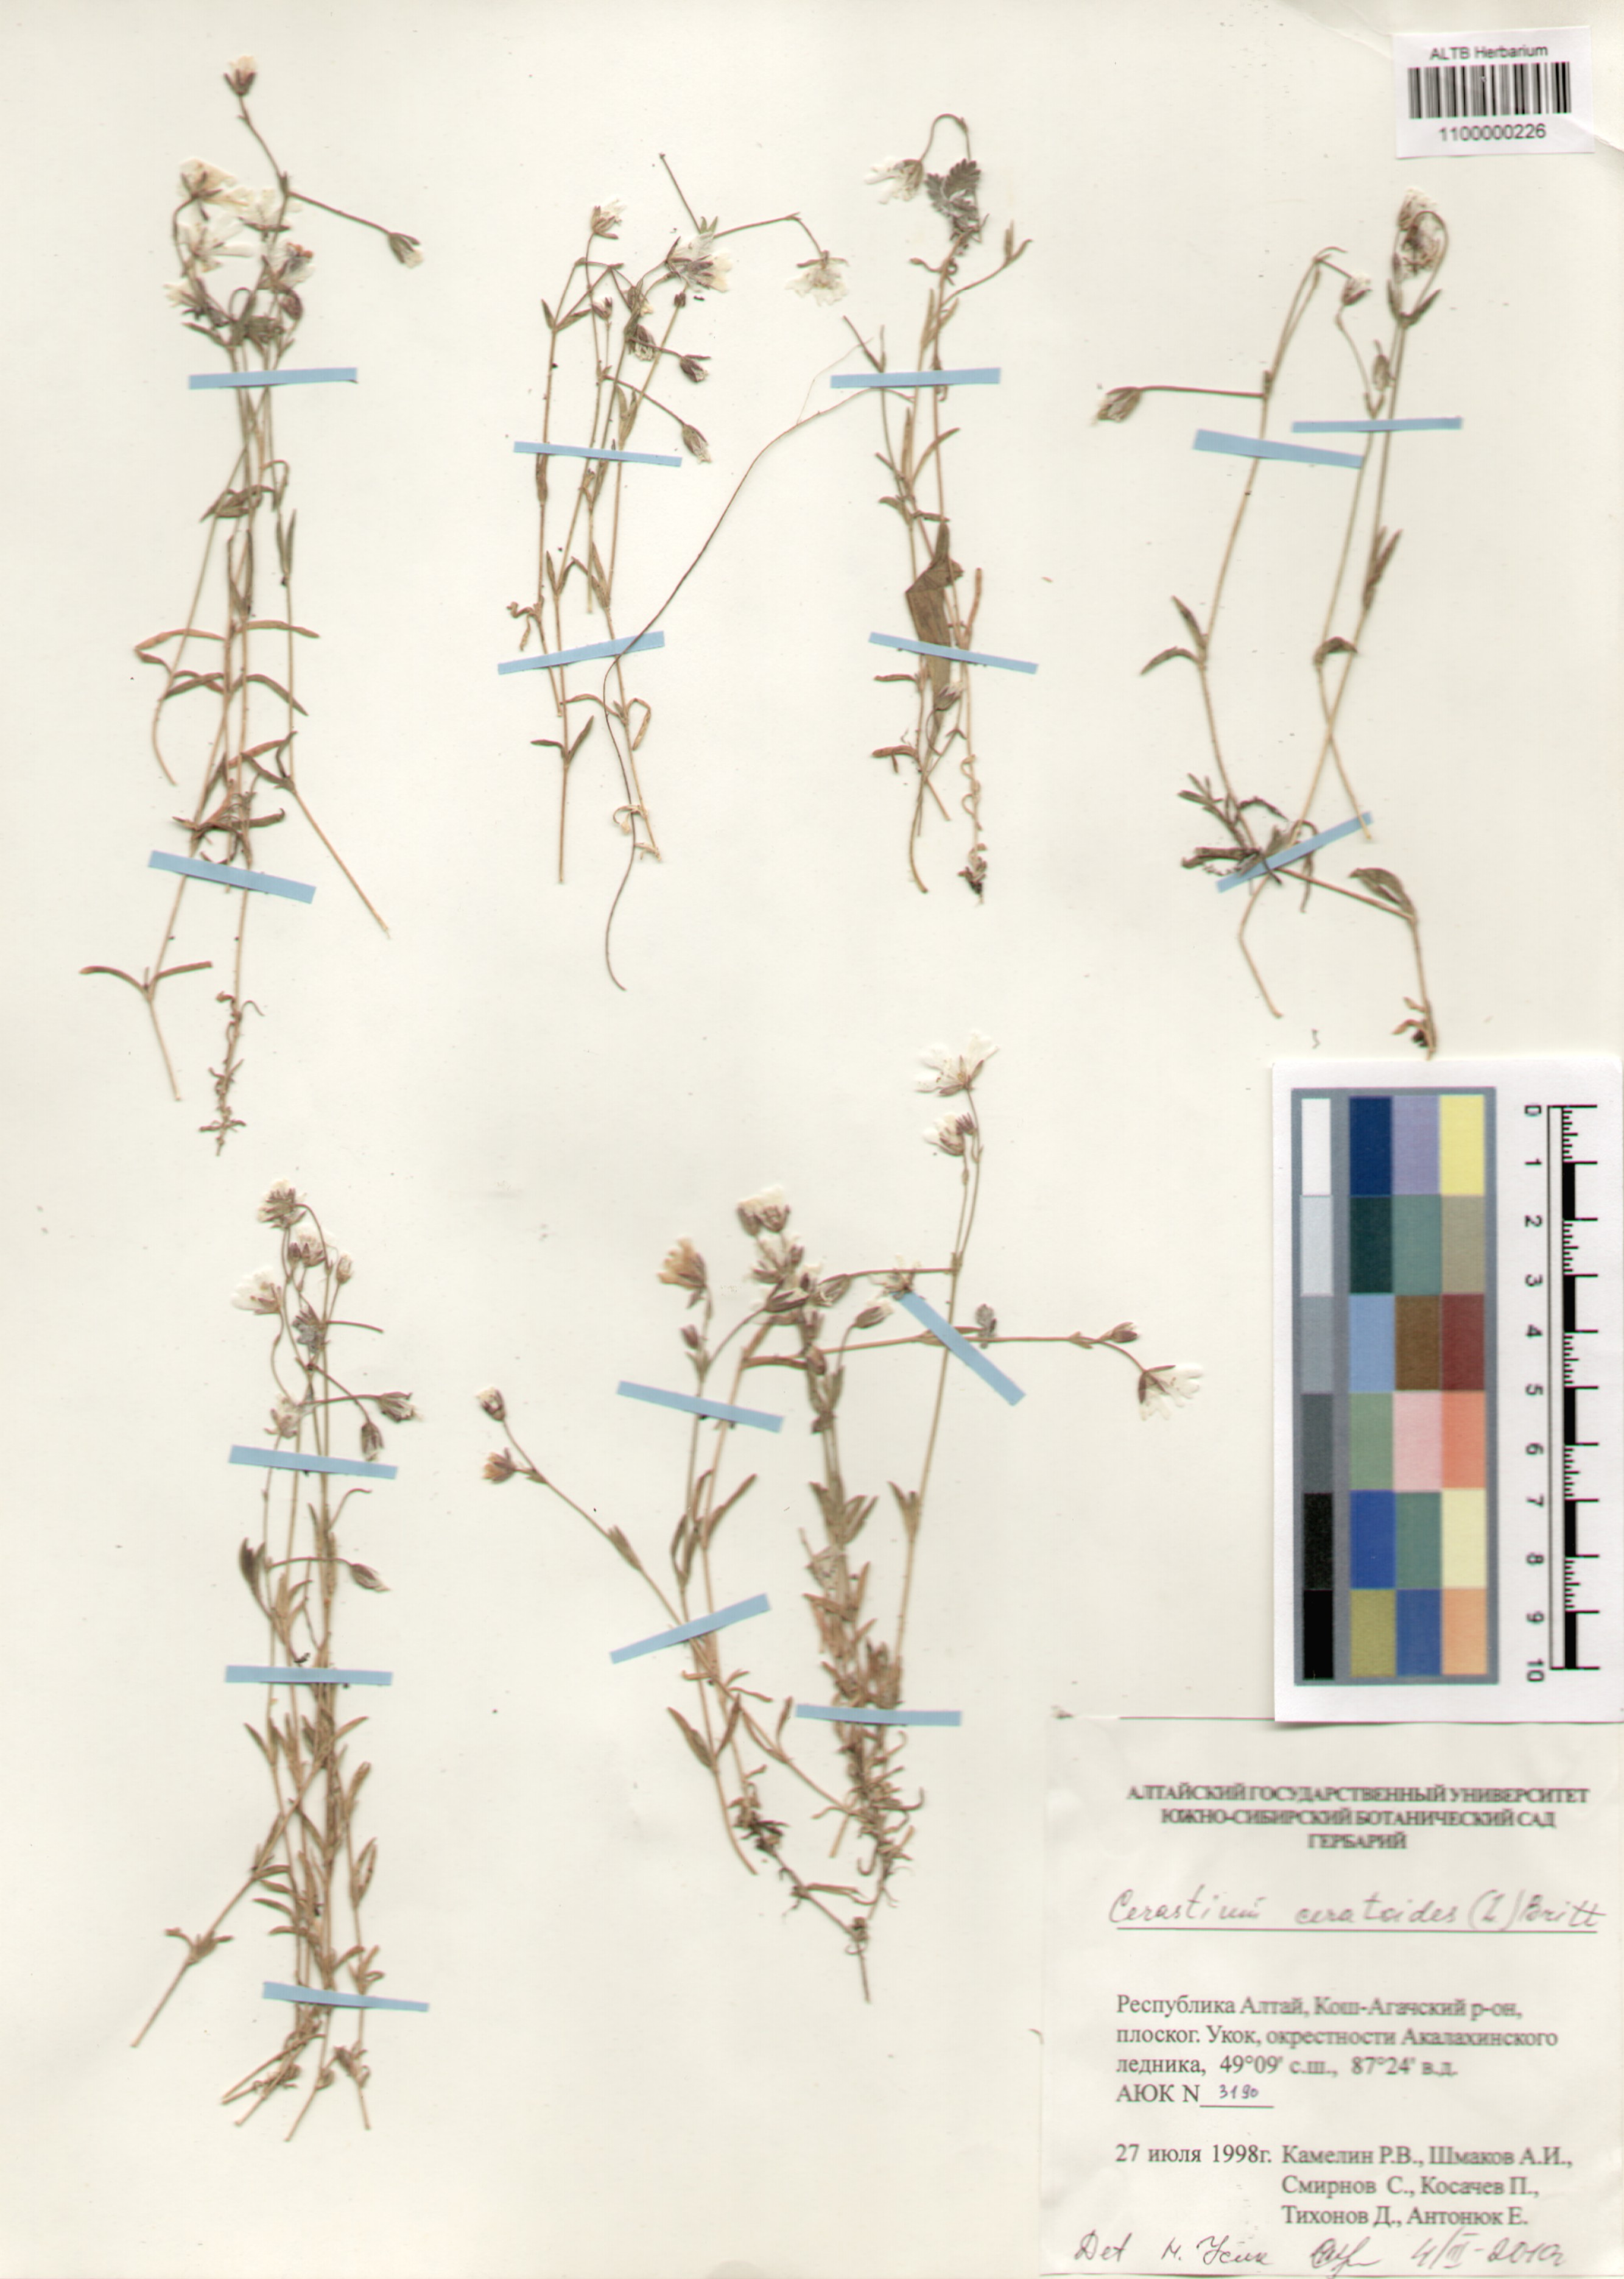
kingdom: Plantae
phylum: Tracheophyta
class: Magnoliopsida
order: Caryophyllales
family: Caryophyllaceae
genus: Dichodon
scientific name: Dichodon cerastoides
